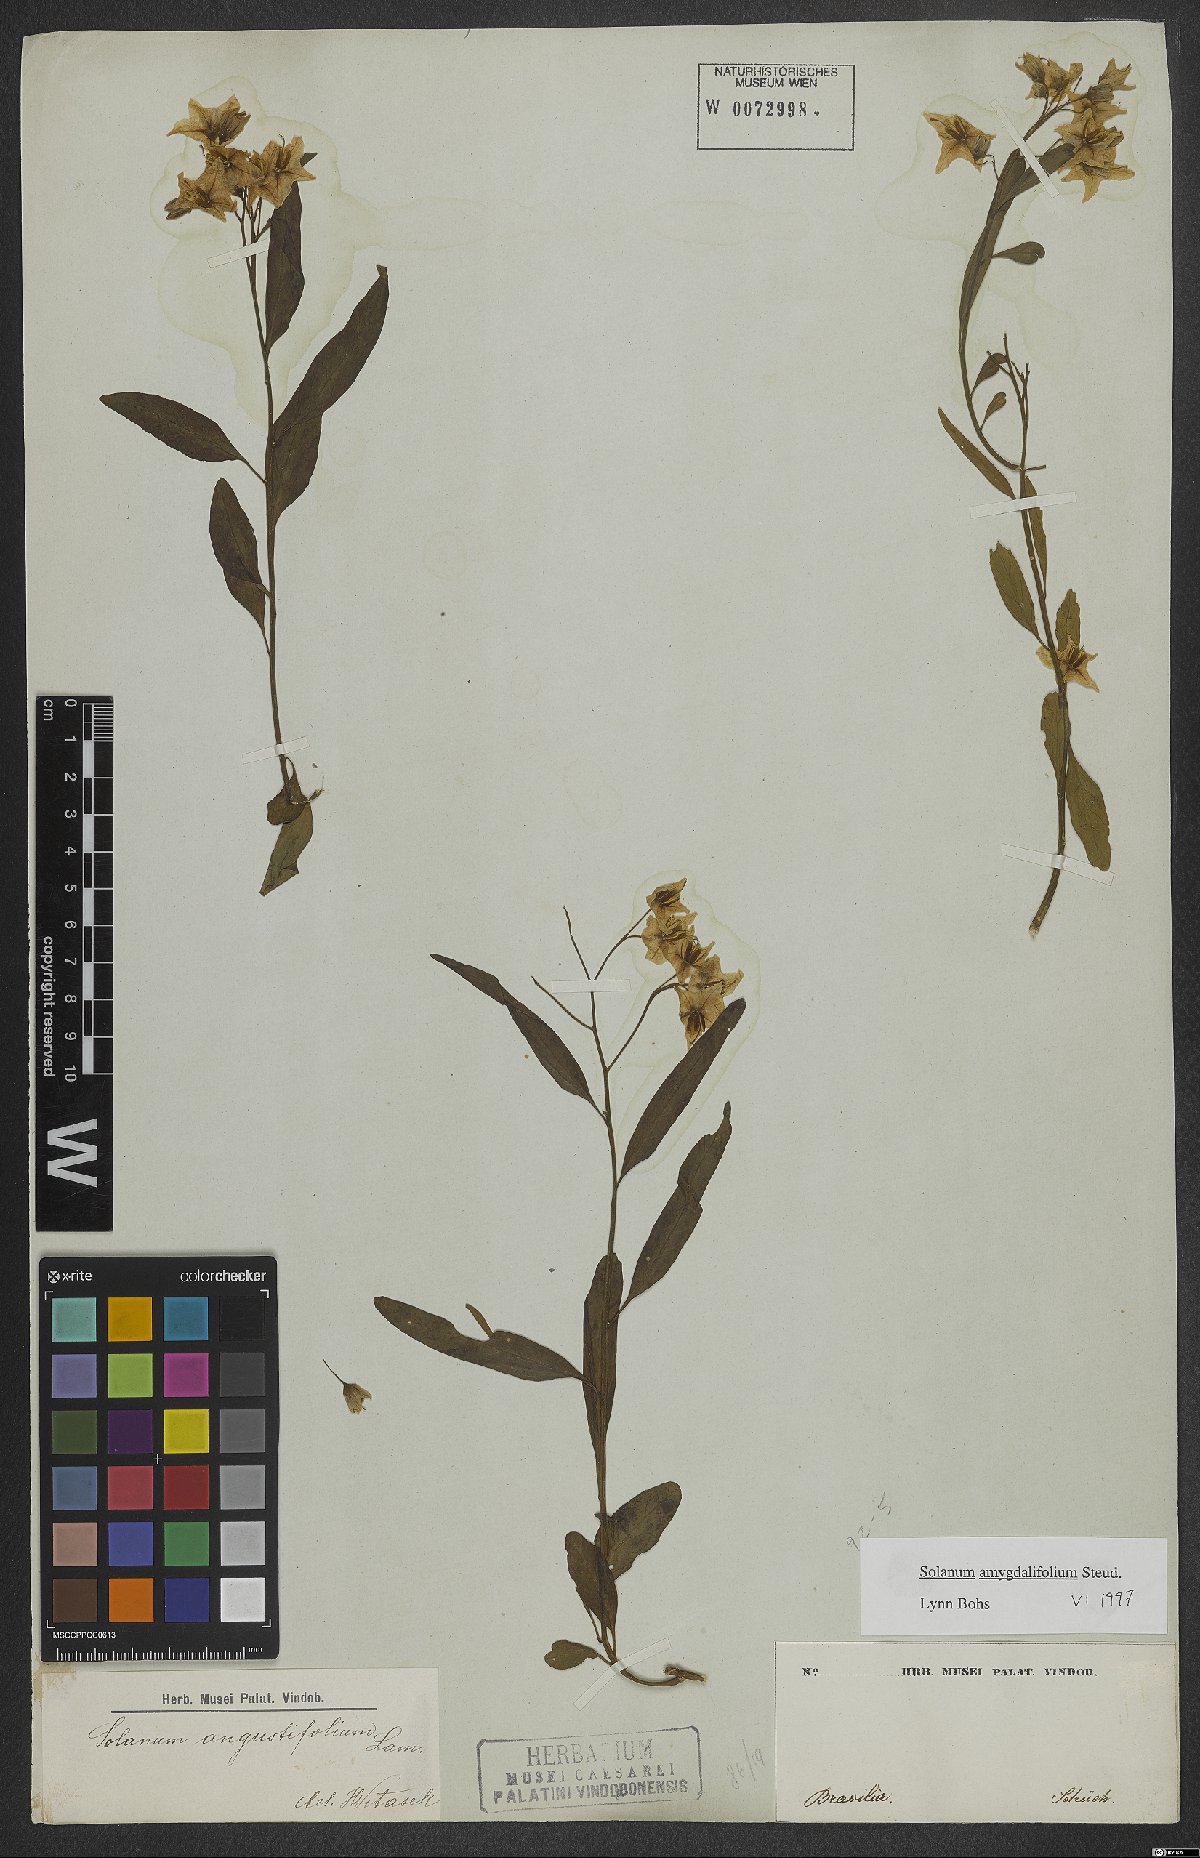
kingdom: Plantae
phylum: Tracheophyta
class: Magnoliopsida
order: Solanales
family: Solanaceae
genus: Solanum
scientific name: Solanum amygdalifolium
